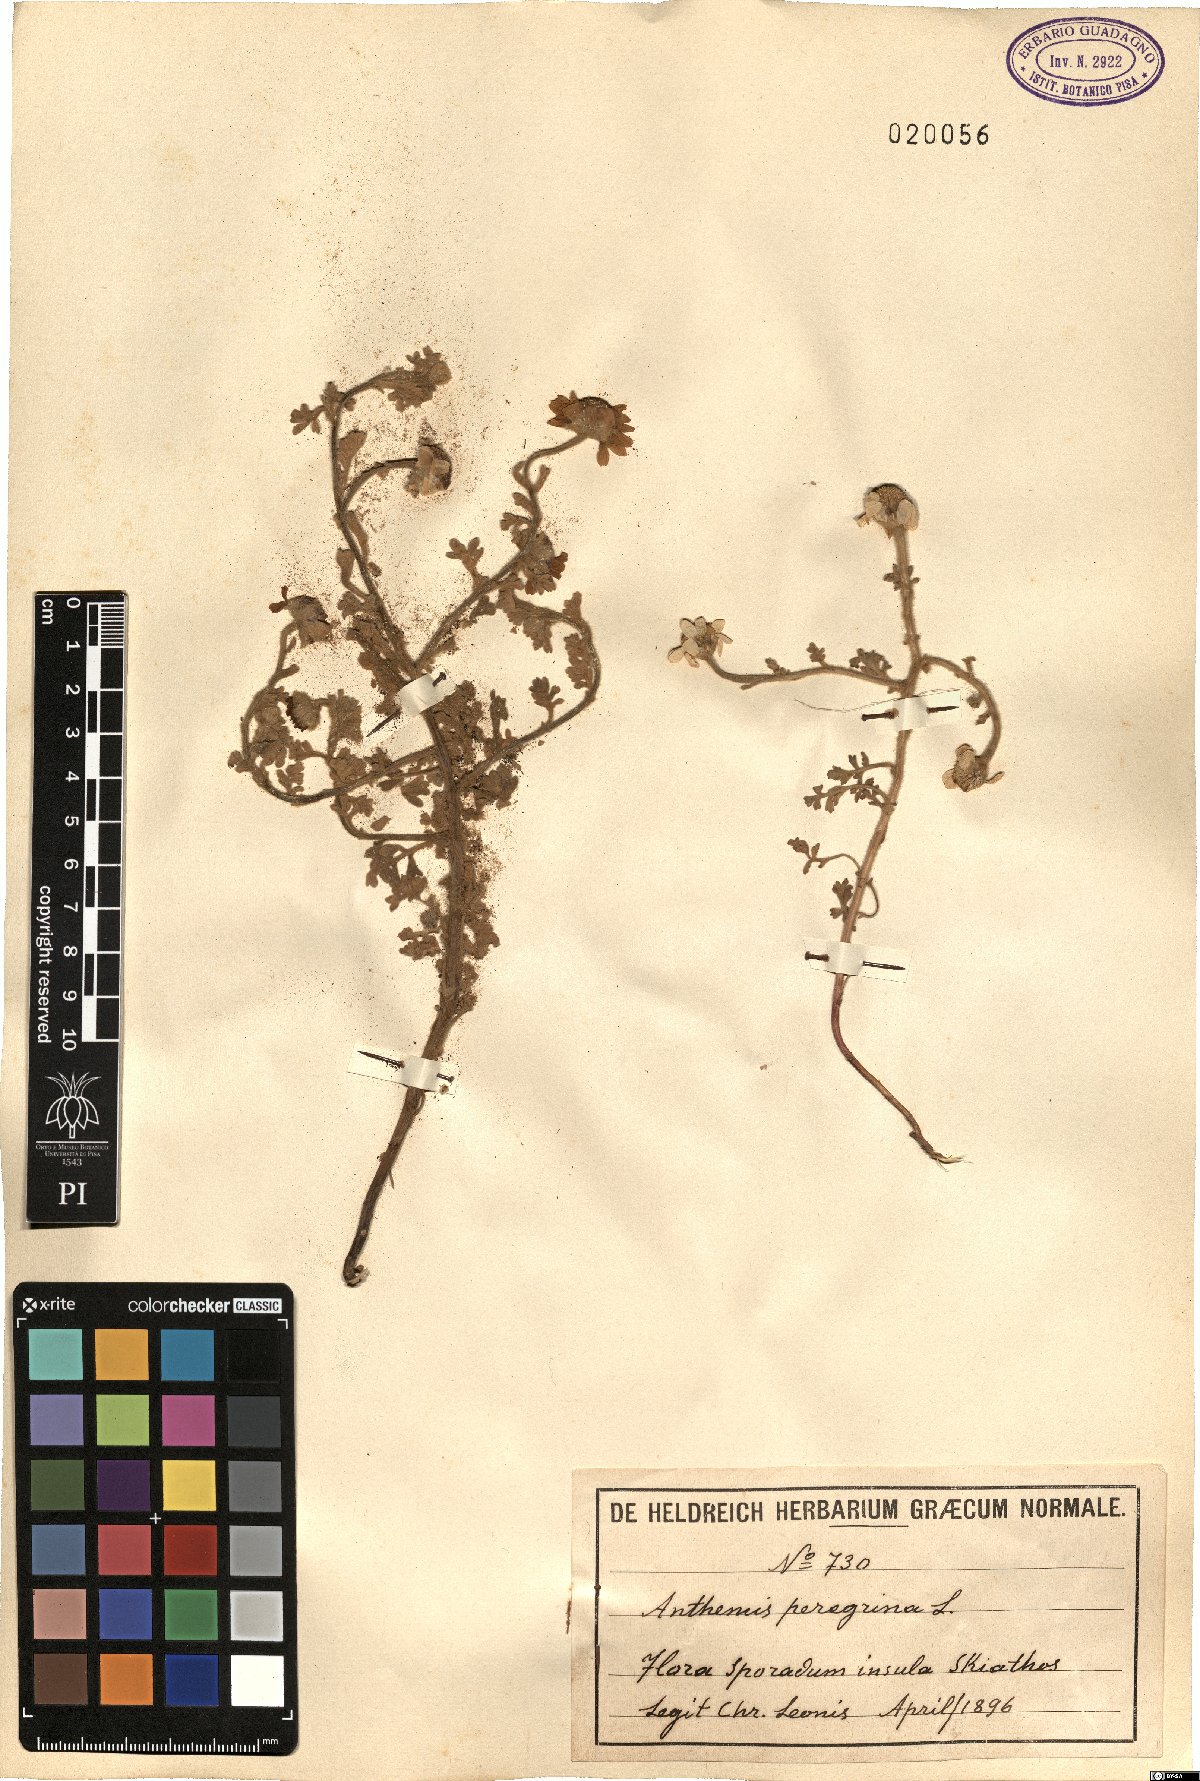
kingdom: Plantae
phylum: Tracheophyta
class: Magnoliopsida
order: Asterales
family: Asteraceae
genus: Anthemis
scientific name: Anthemis tomentosa
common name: Woolly chamomile
